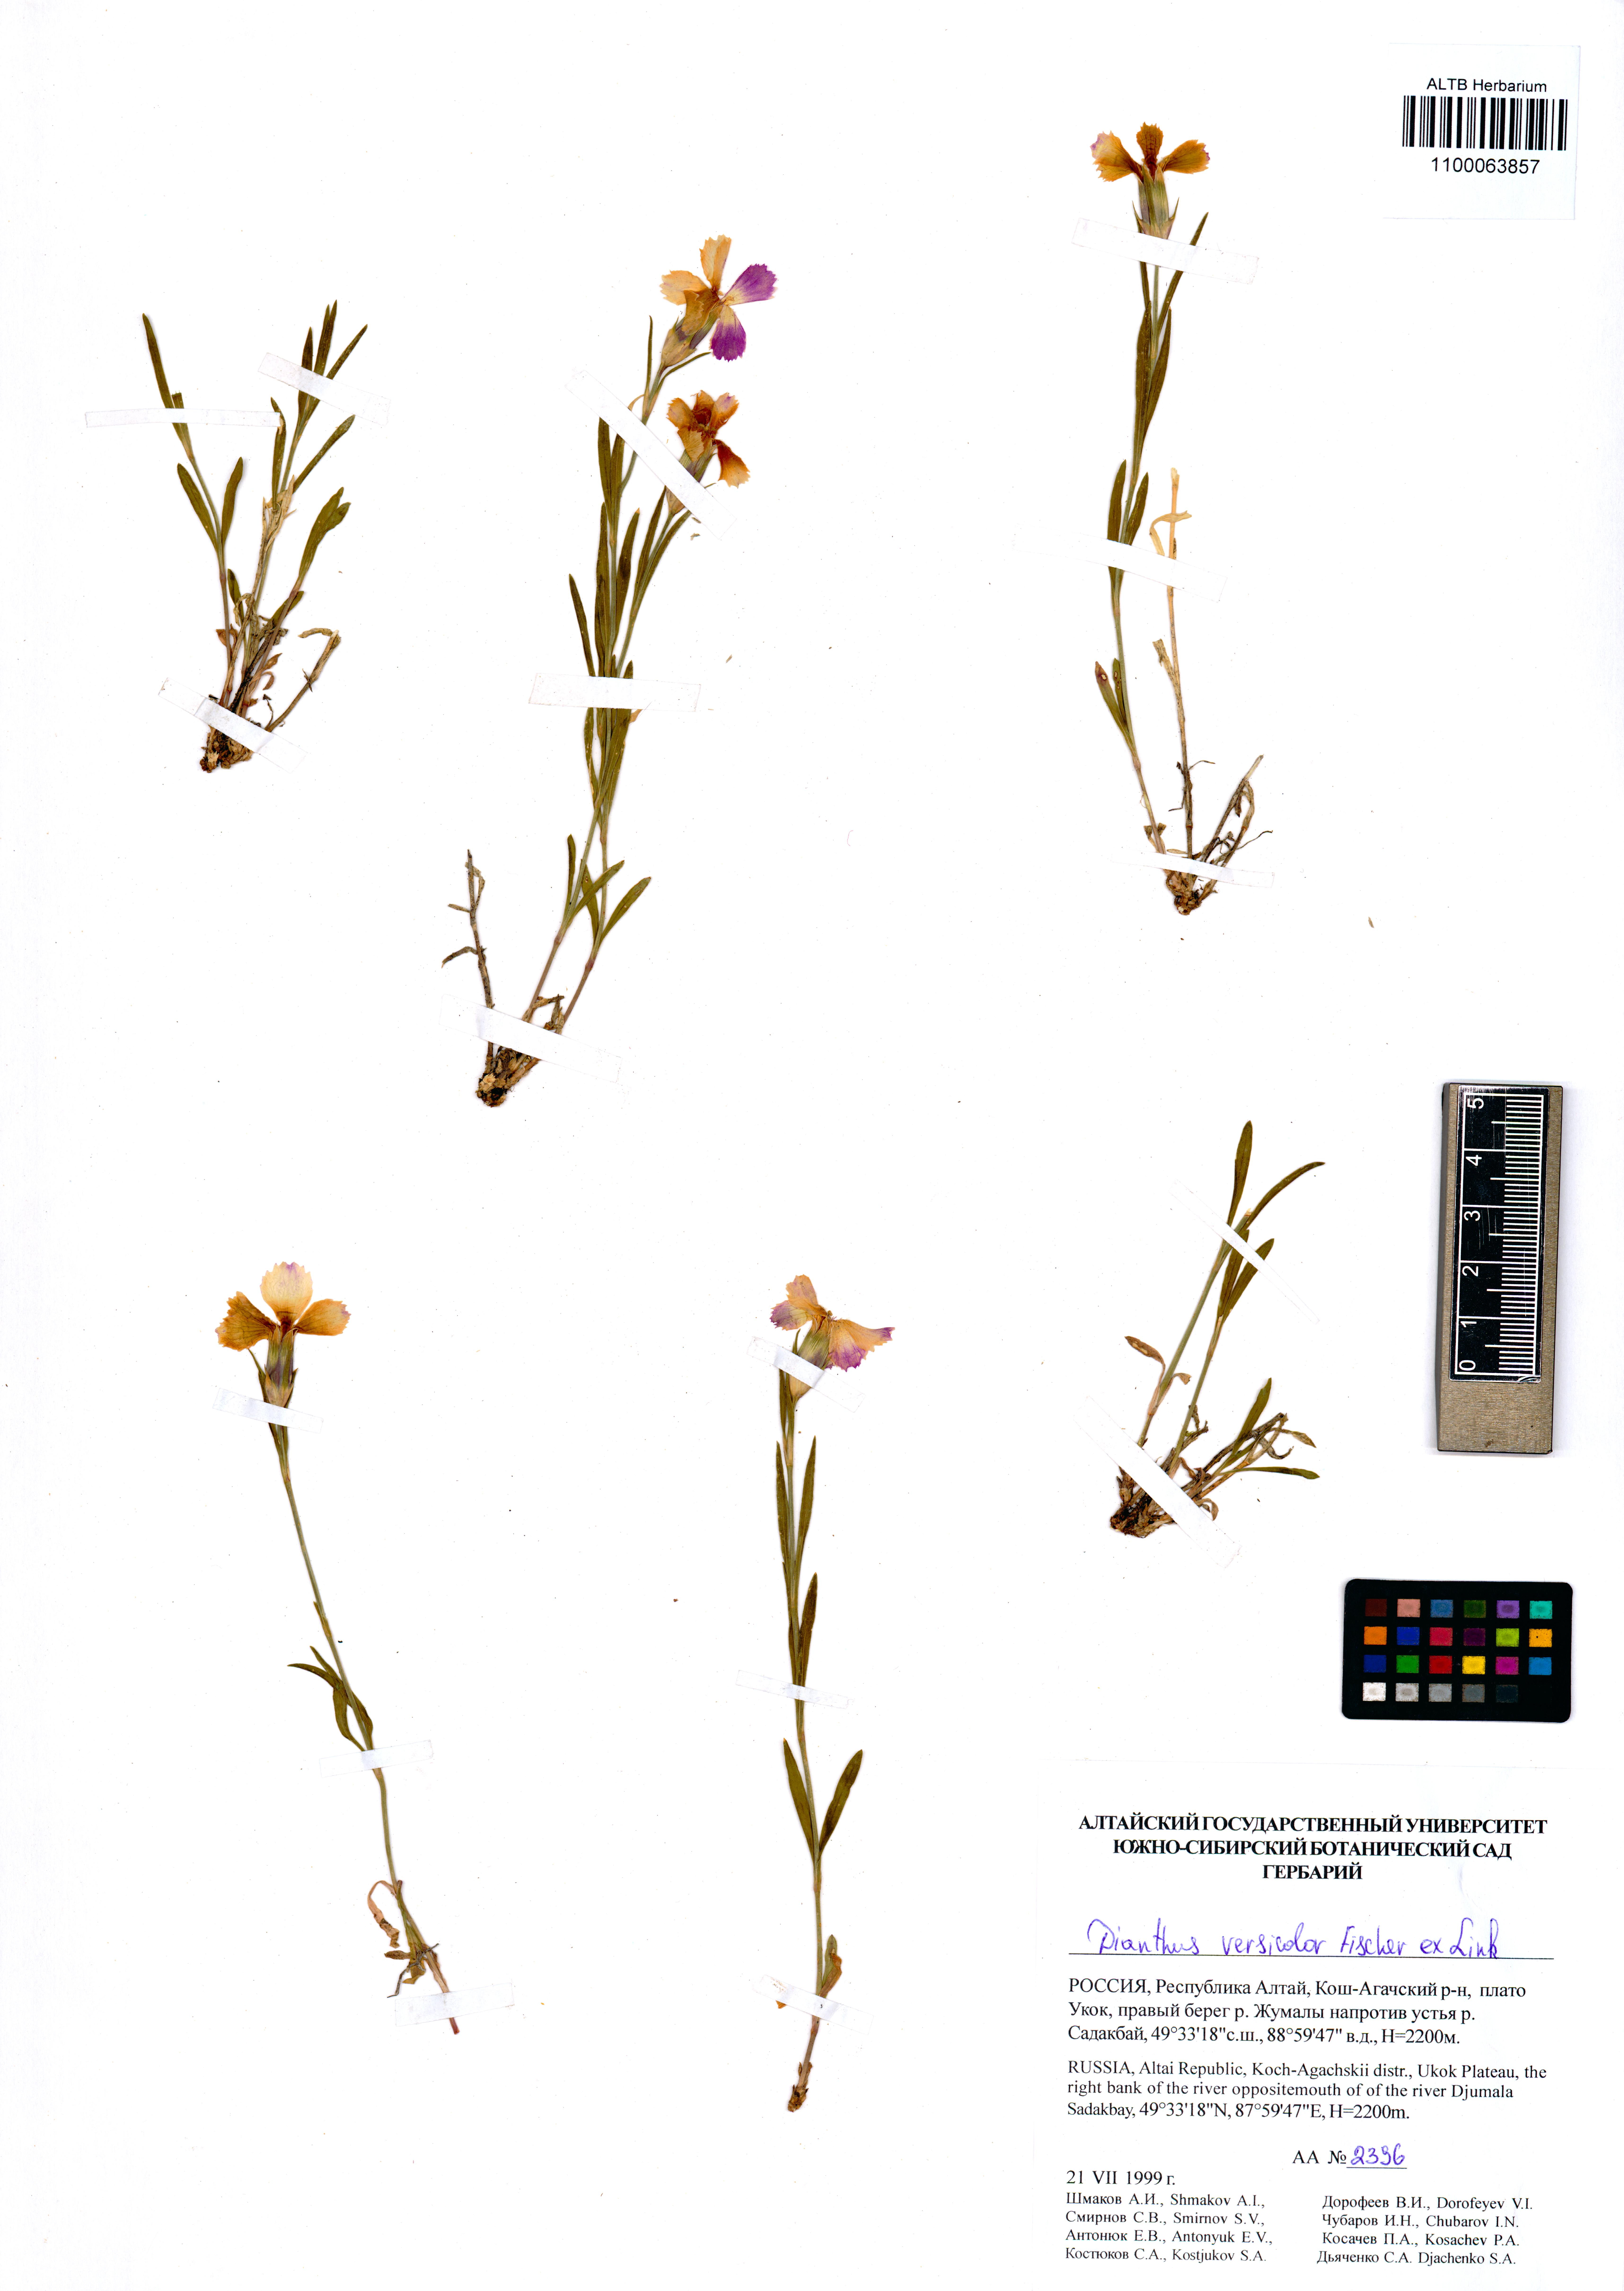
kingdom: Plantae
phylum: Tracheophyta
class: Magnoliopsida
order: Caryophyllales
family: Caryophyllaceae
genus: Dianthus
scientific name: Dianthus chinensis
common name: Rainbow pink
